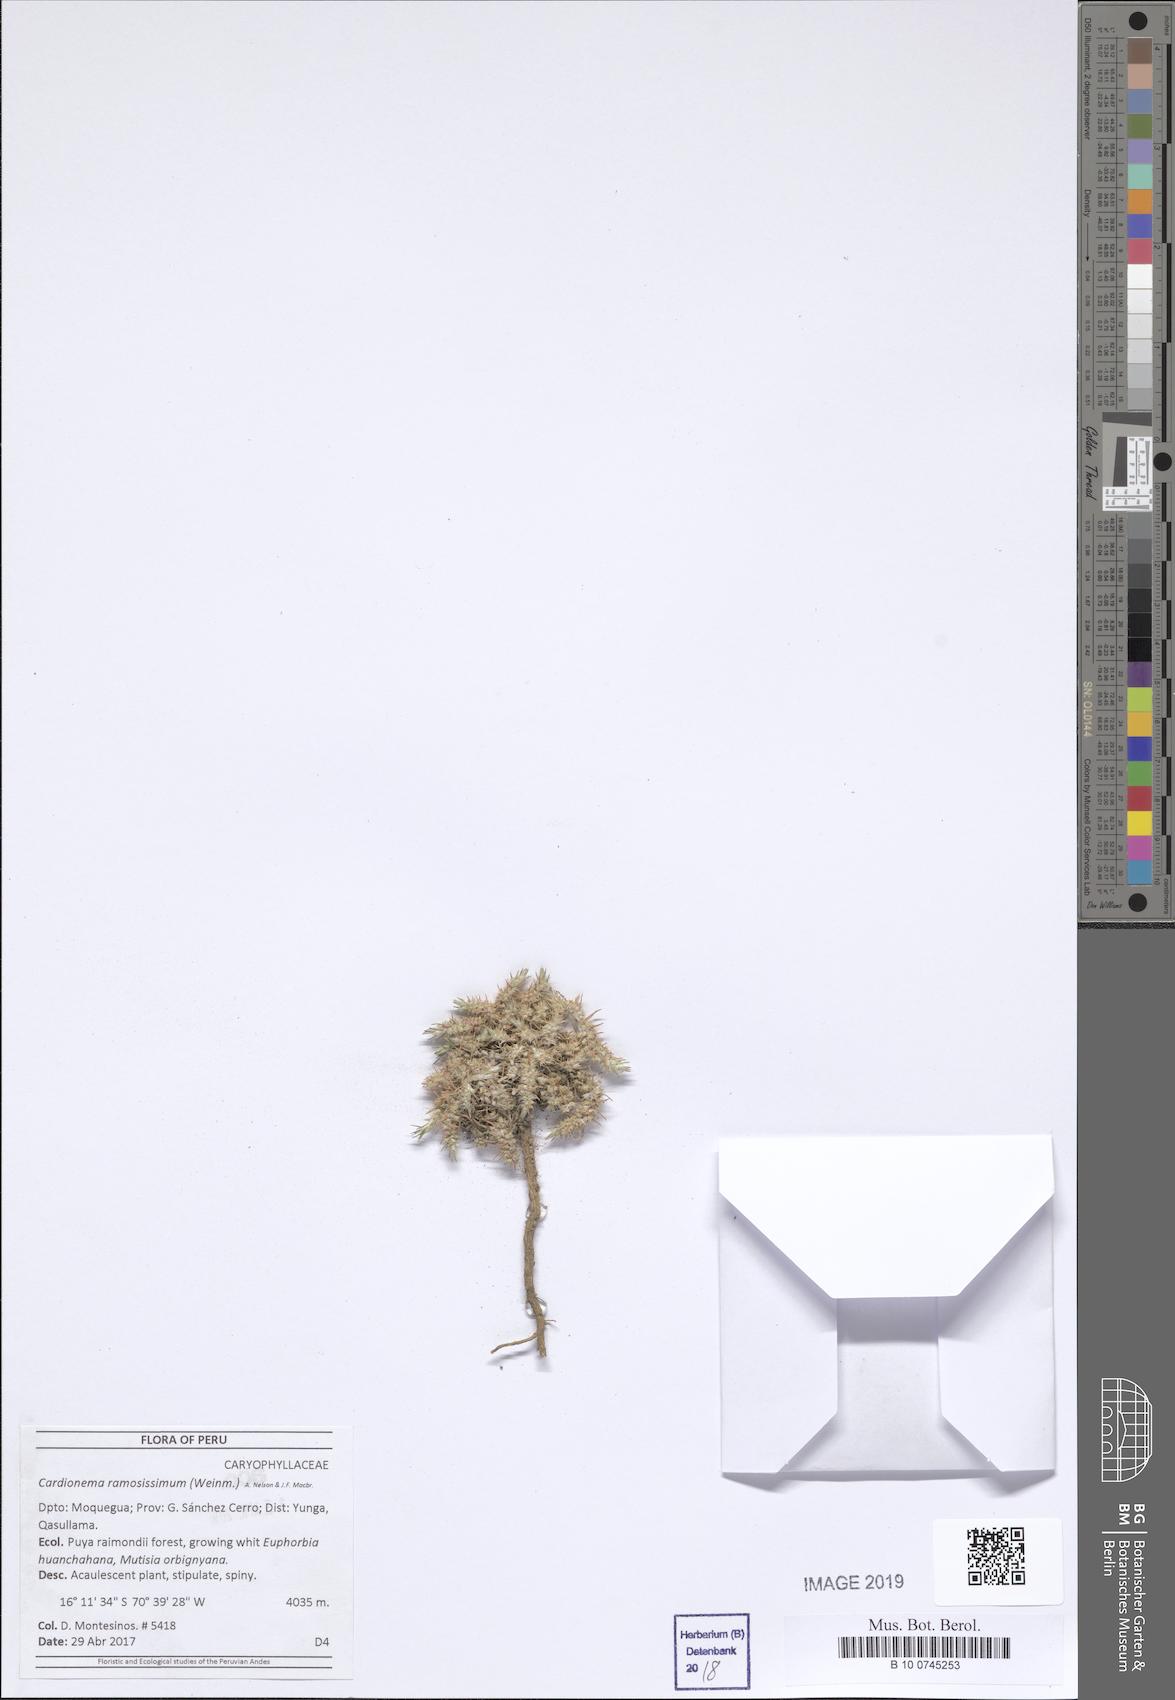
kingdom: Plantae
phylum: Tracheophyta
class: Magnoliopsida
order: Caryophyllales
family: Caryophyllaceae
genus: Cardionema
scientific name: Cardionema ramosissima
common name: Sandcarpet
